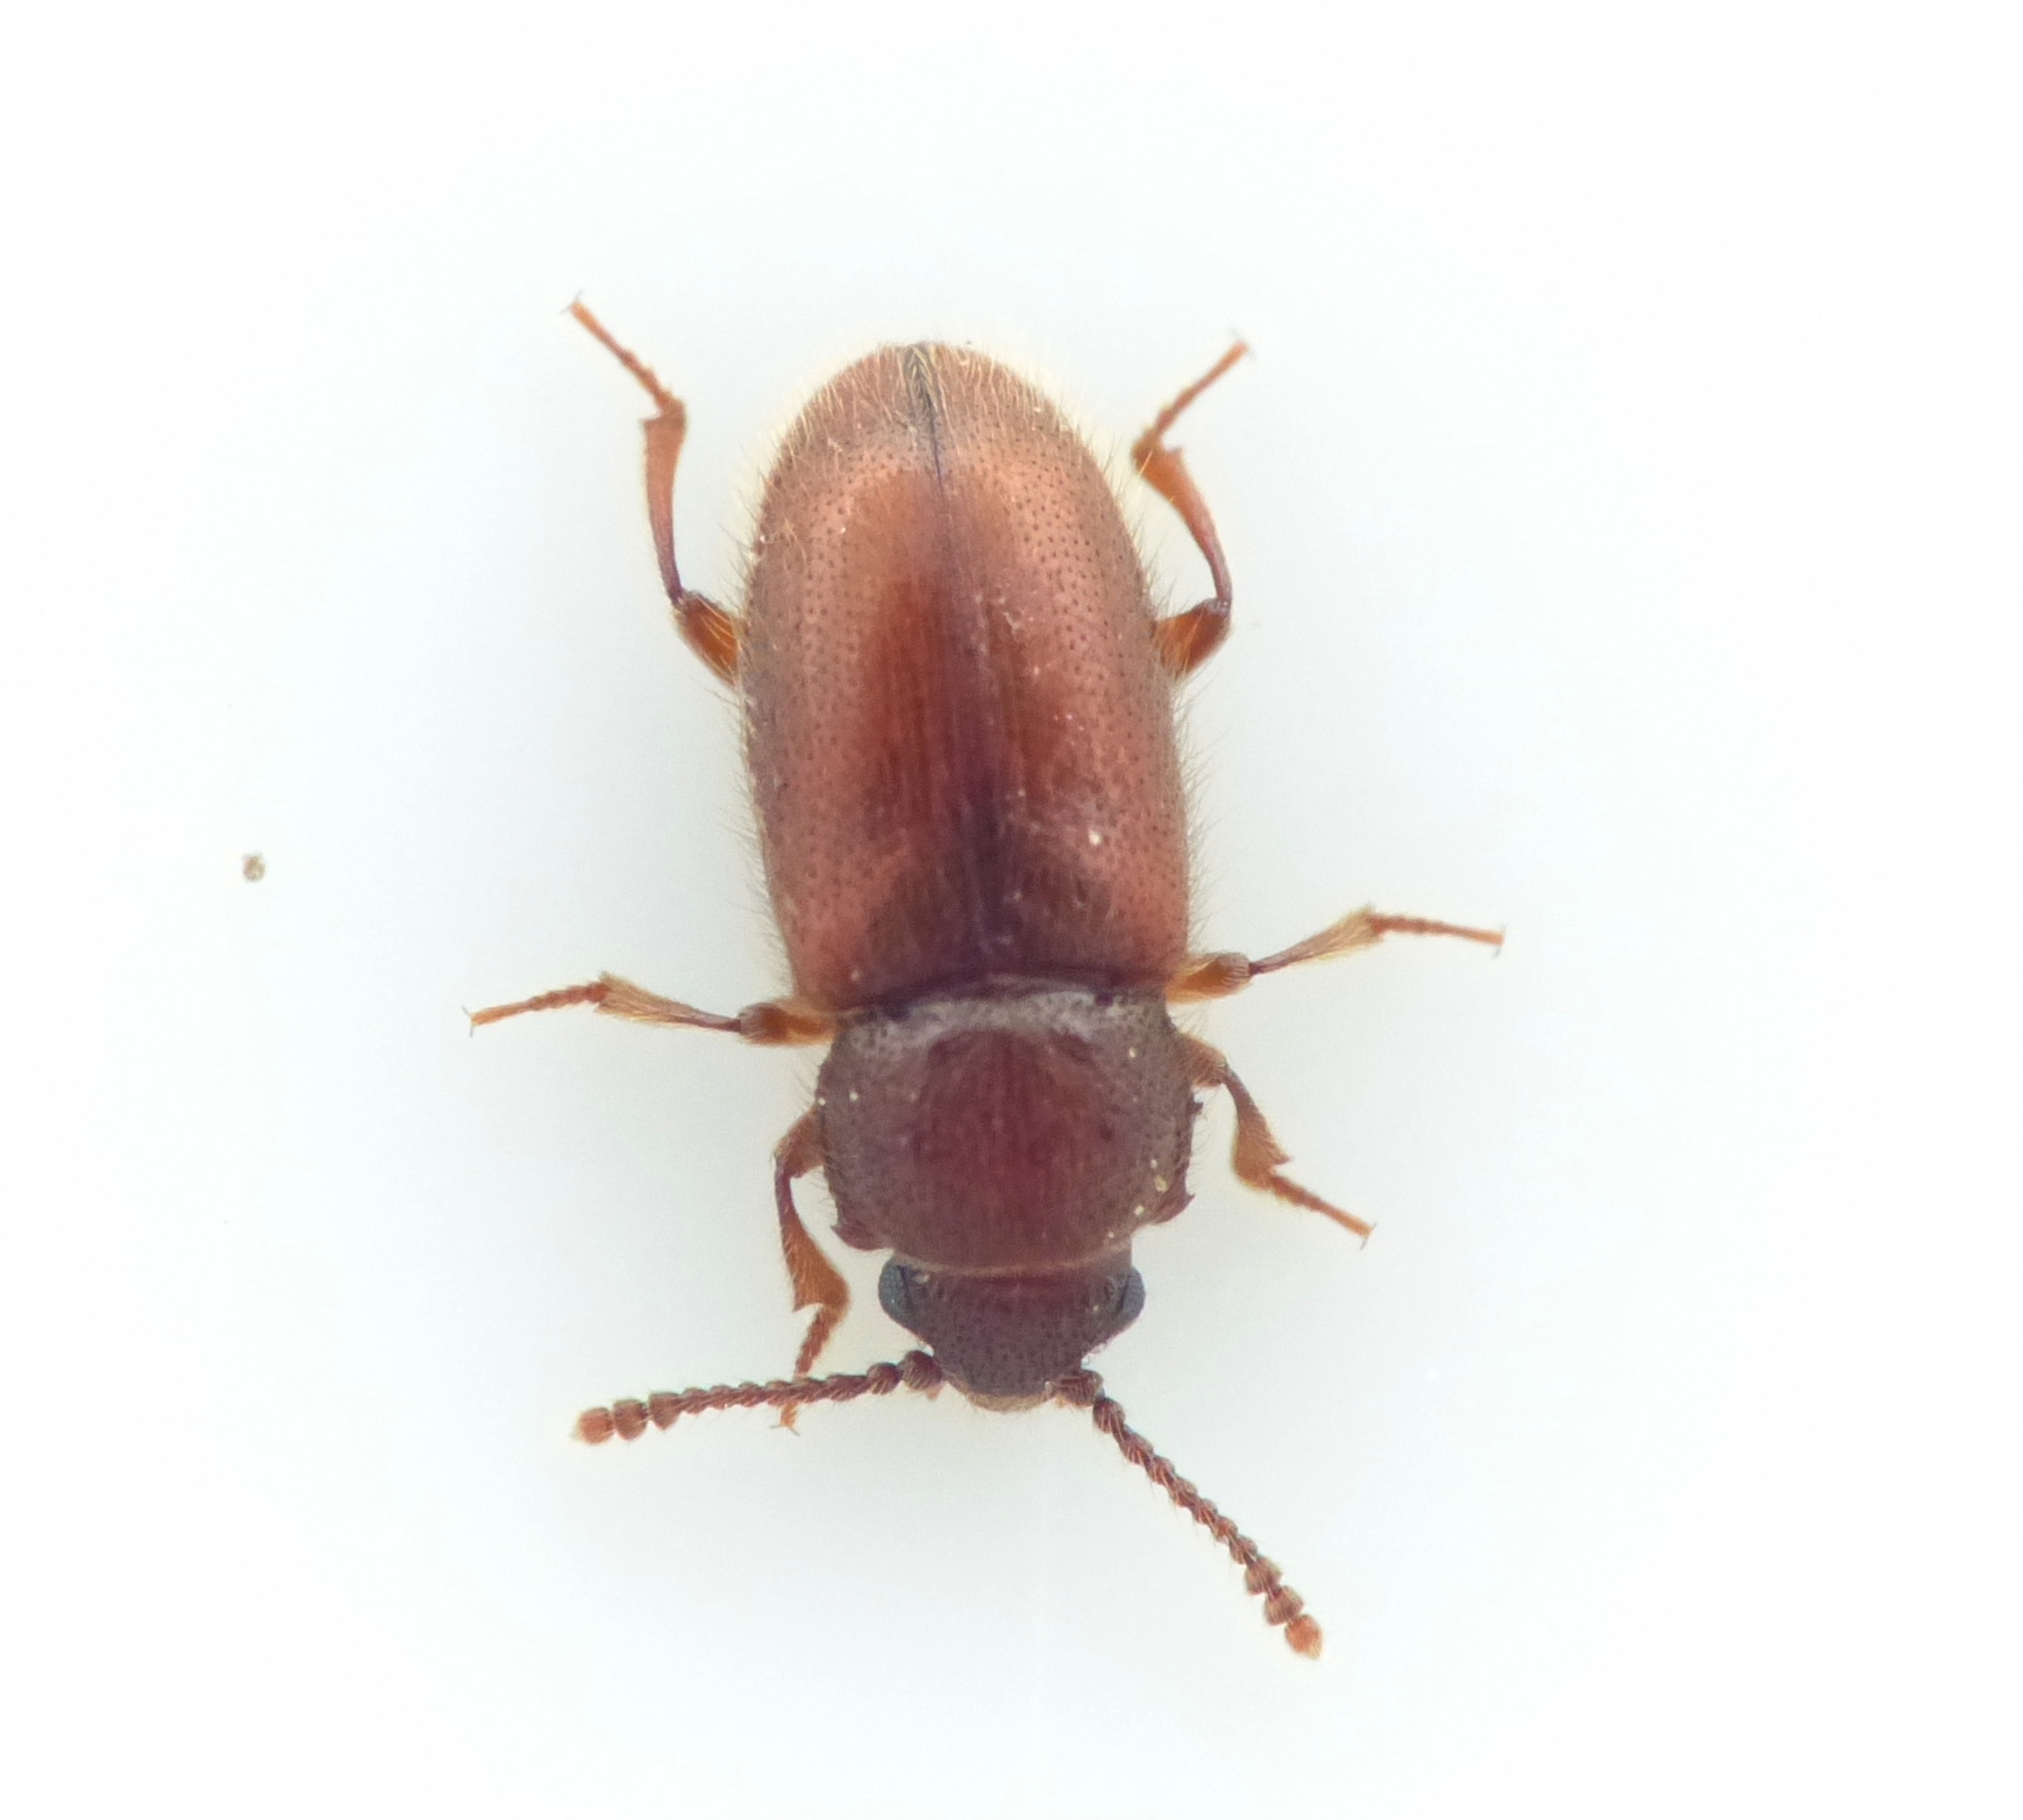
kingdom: Animalia
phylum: Arthropoda
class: Insecta
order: Coleoptera
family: Cryptophagidae
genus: Cryptophagus
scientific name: Cryptophagus lycoperdi
